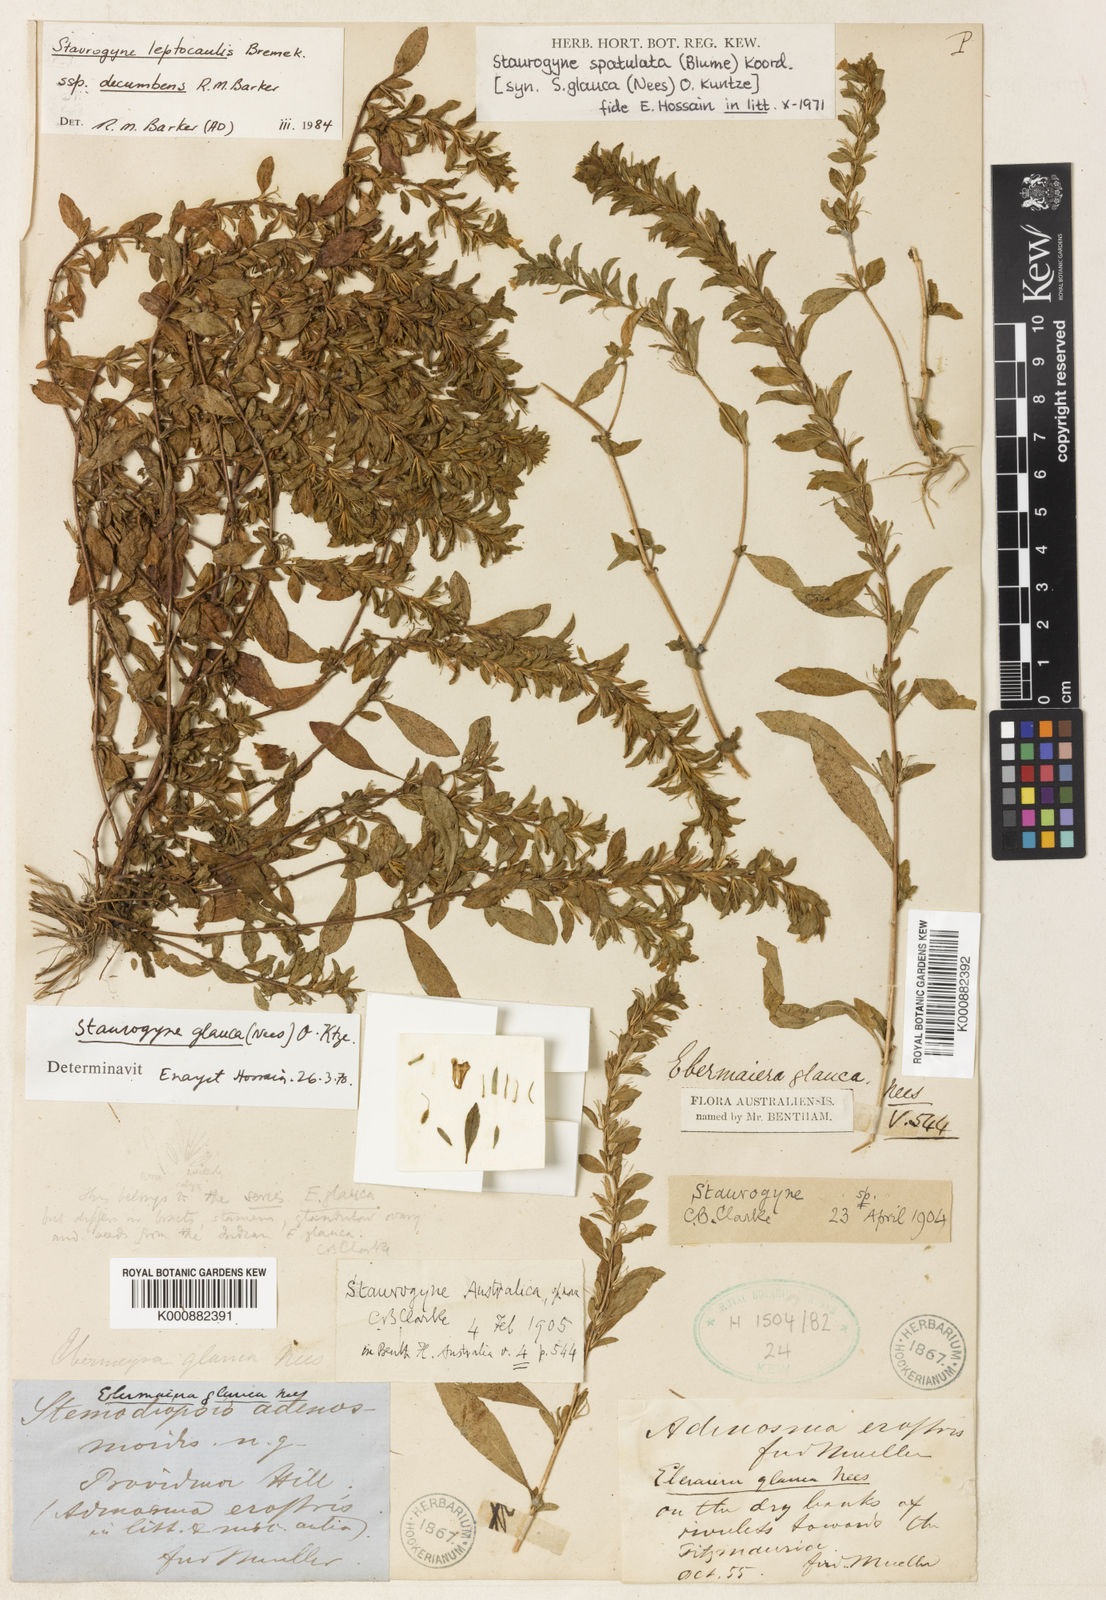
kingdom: Plantae
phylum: Tracheophyta
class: Magnoliopsida
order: Lamiales
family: Acanthaceae
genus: Staurogyne
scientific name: Staurogyne spathulata
